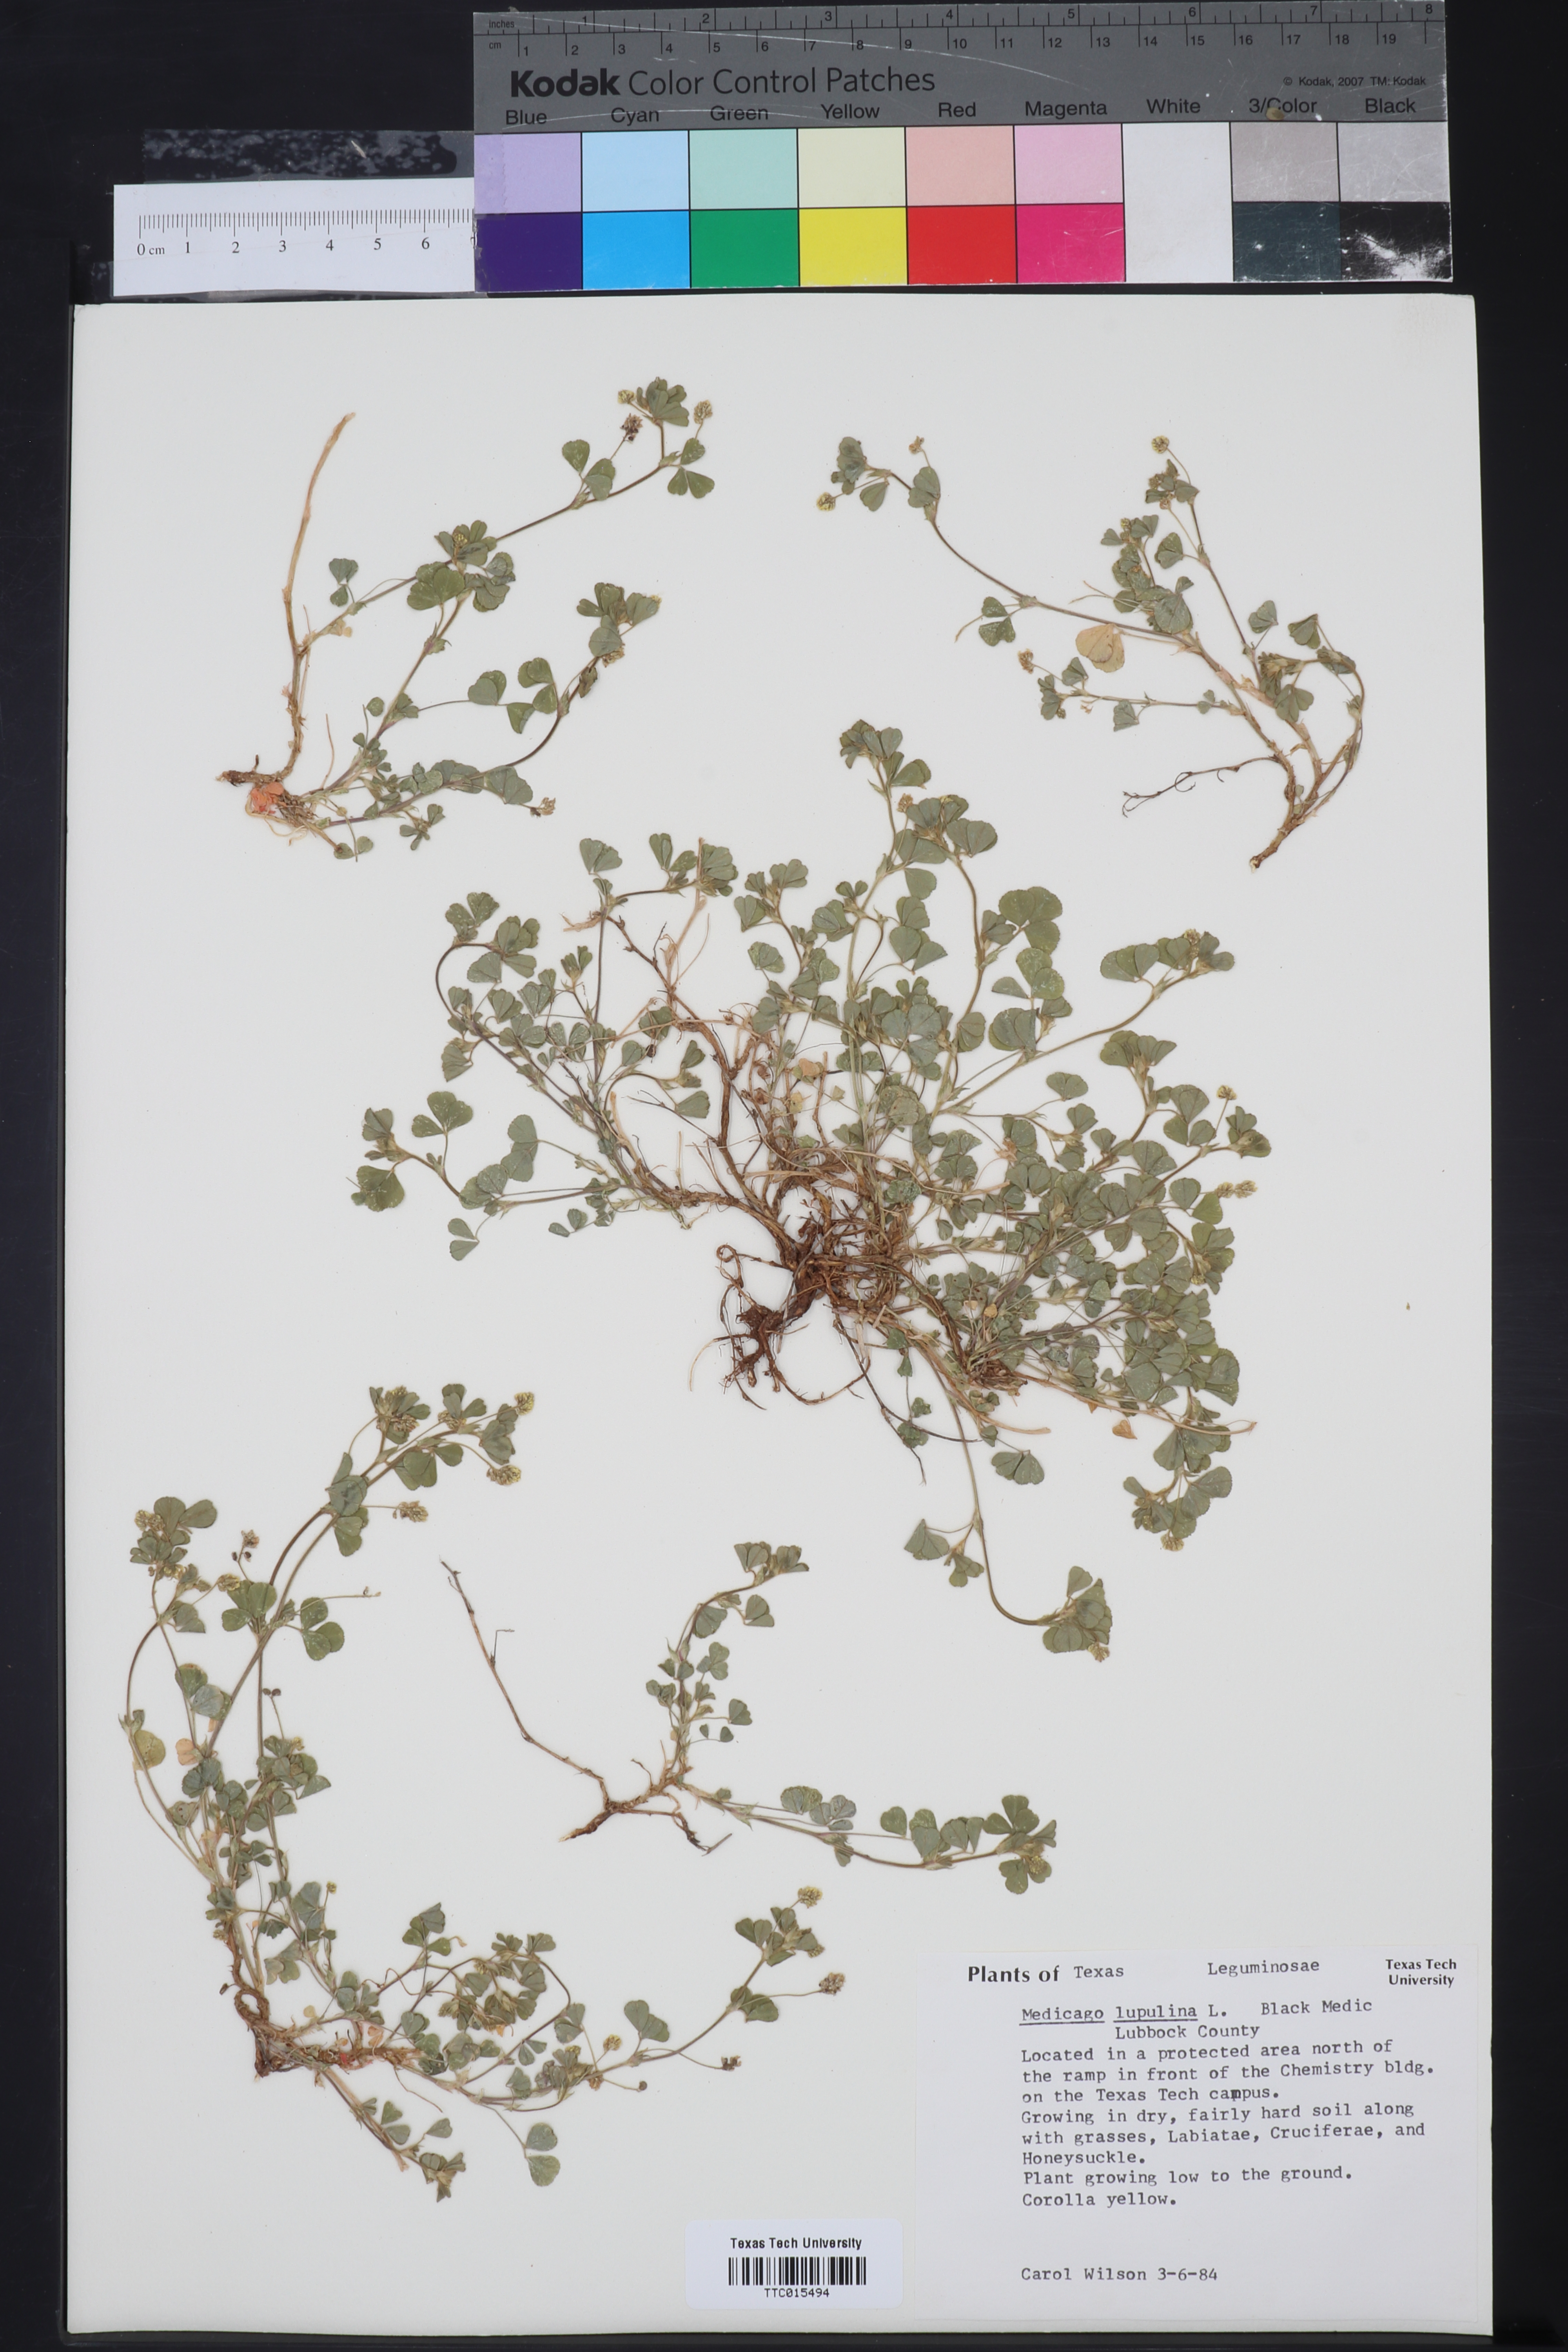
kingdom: Plantae
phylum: Tracheophyta
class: Magnoliopsida
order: Fabales
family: Fabaceae
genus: Medicago
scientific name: Medicago lupulina
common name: Black medick
